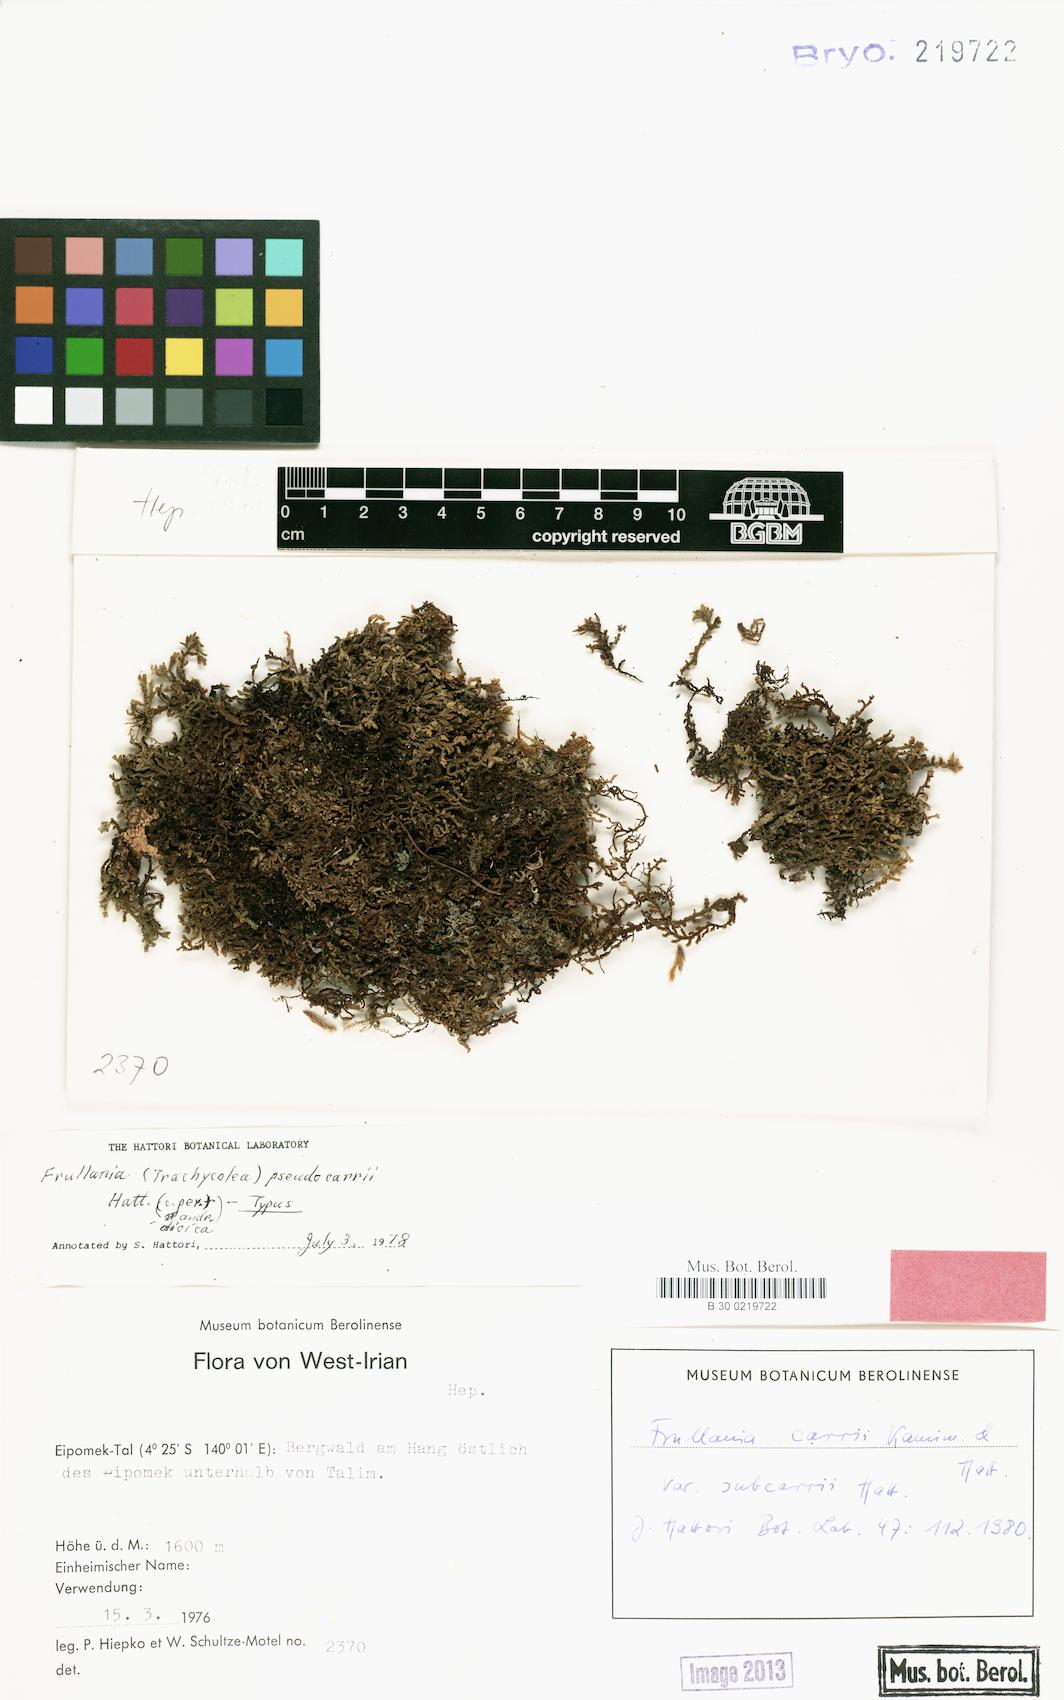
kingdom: Plantae
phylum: Marchantiophyta
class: Jungermanniopsida
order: Porellales
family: Frullaniaceae
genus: Frullania
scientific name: Frullania carrii
